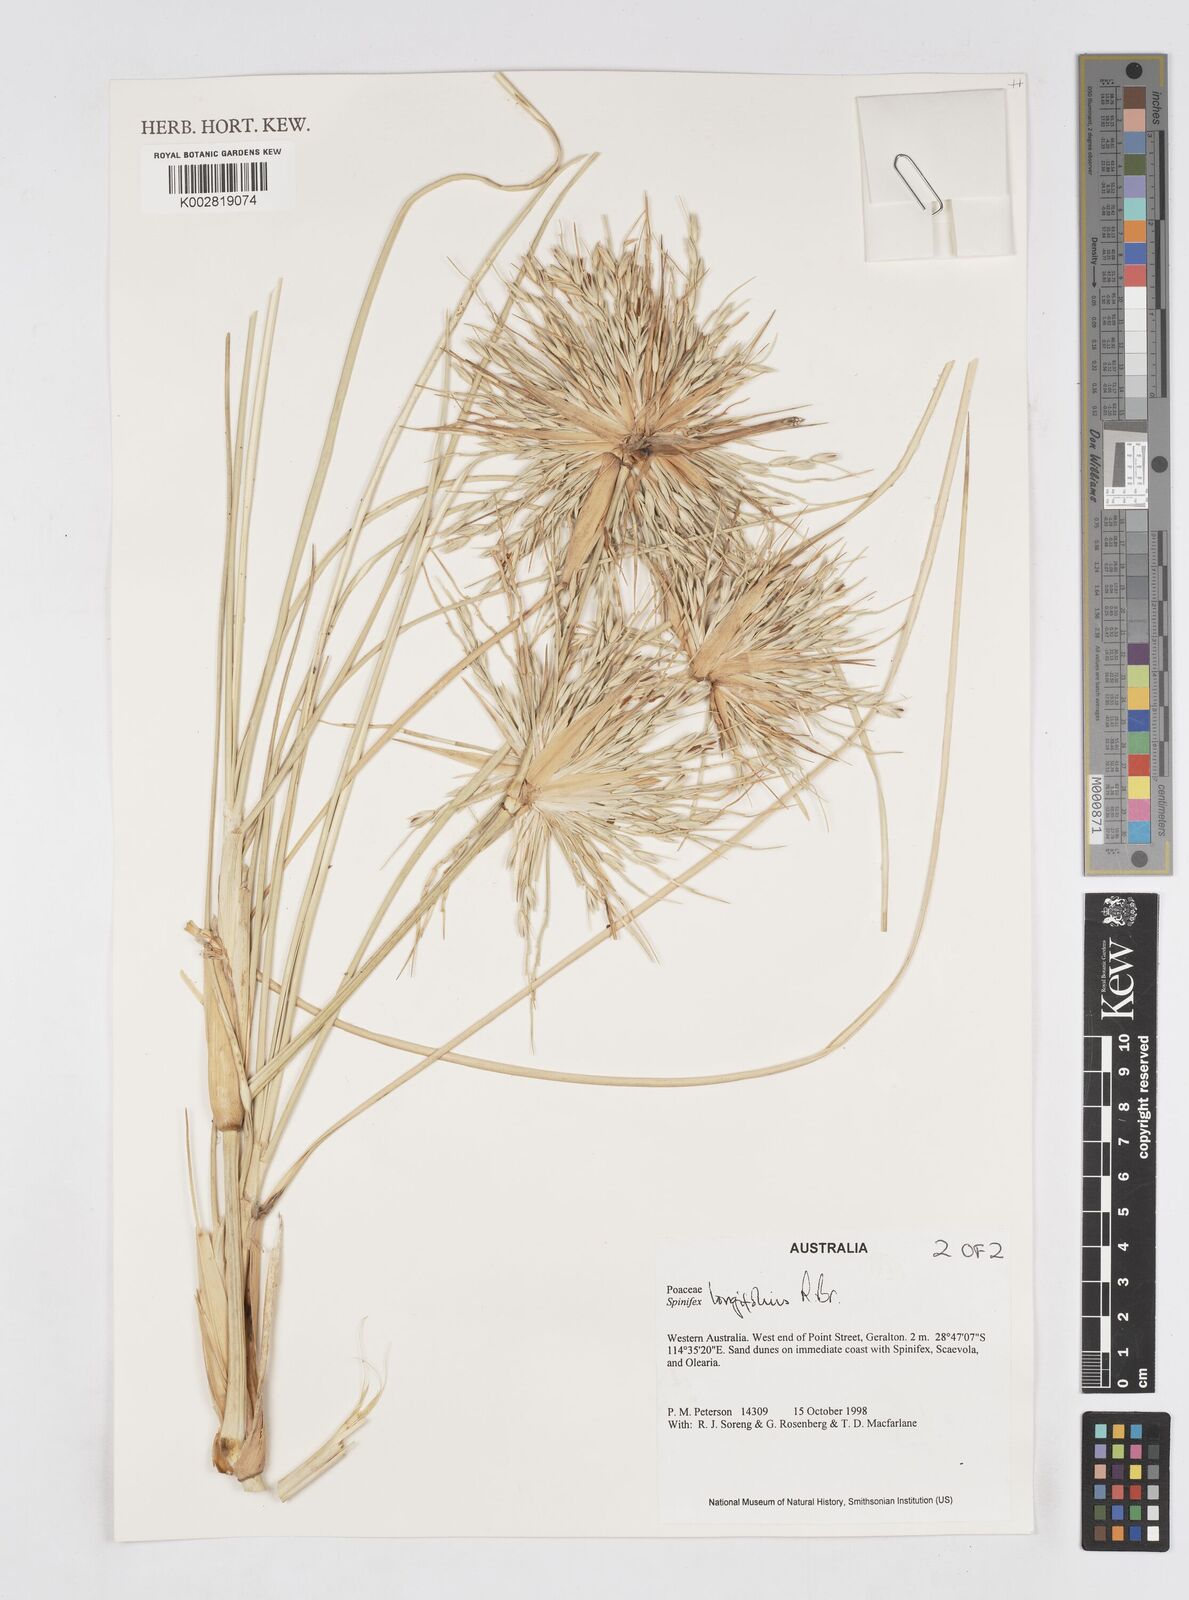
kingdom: Plantae
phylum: Tracheophyta
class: Liliopsida
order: Poales
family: Poaceae
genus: Spinifex
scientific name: Spinifex longifolius
